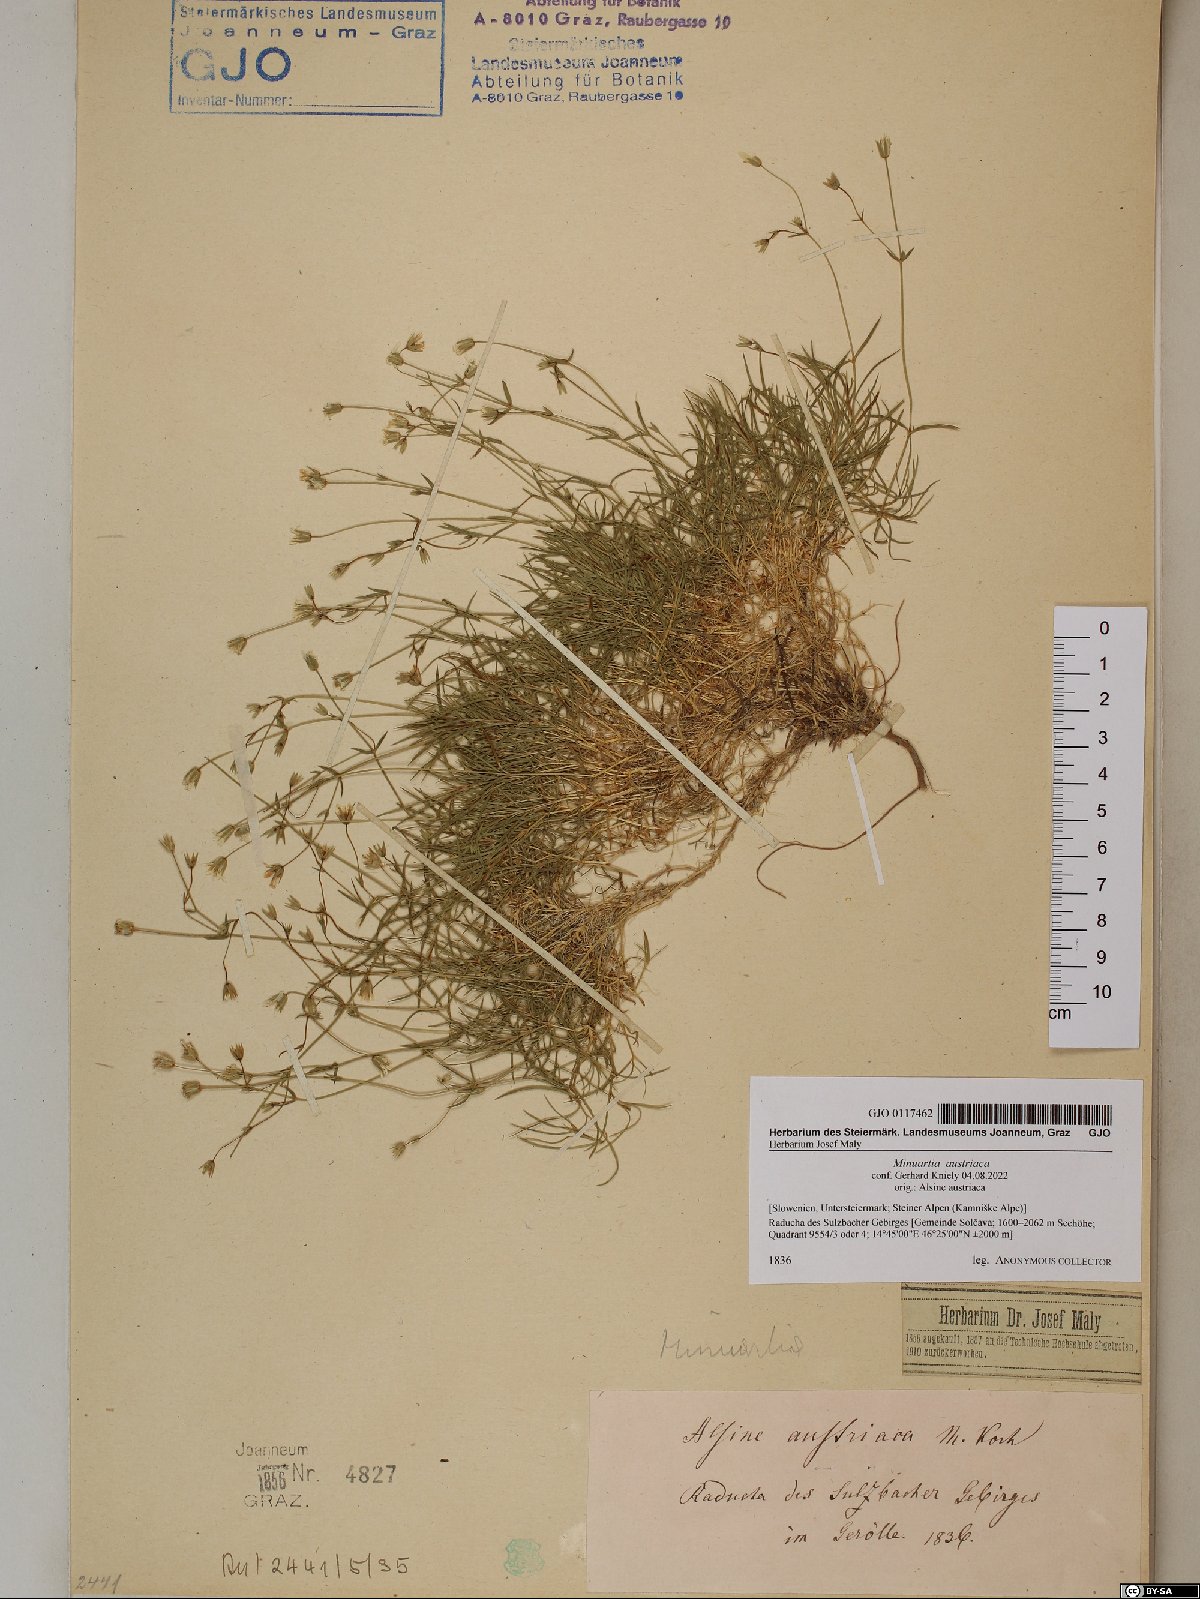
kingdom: Plantae
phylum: Tracheophyta
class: Magnoliopsida
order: Caryophyllales
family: Caryophyllaceae
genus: Sabulina
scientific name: Sabulina austriaca
